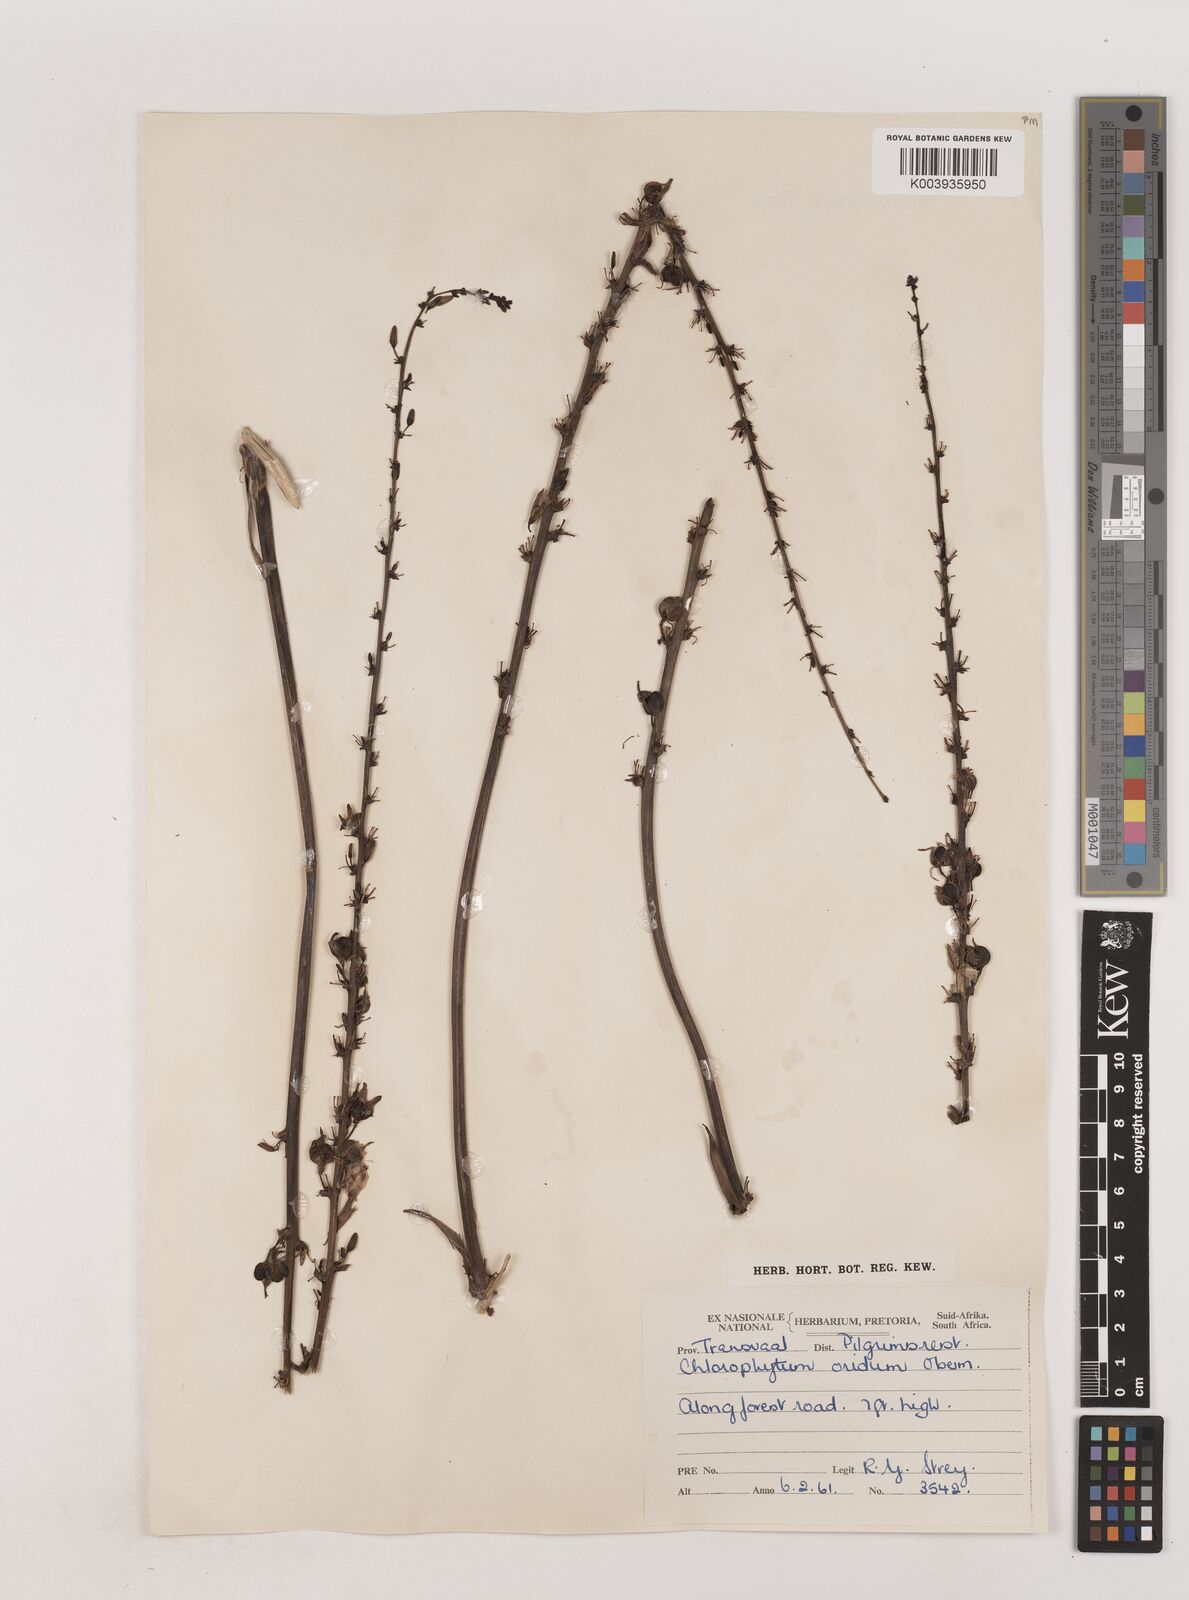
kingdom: Plantae
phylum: Tracheophyta
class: Liliopsida
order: Asparagales
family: Asparagaceae
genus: Chlorophytum
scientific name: Chlorophytum aridum
